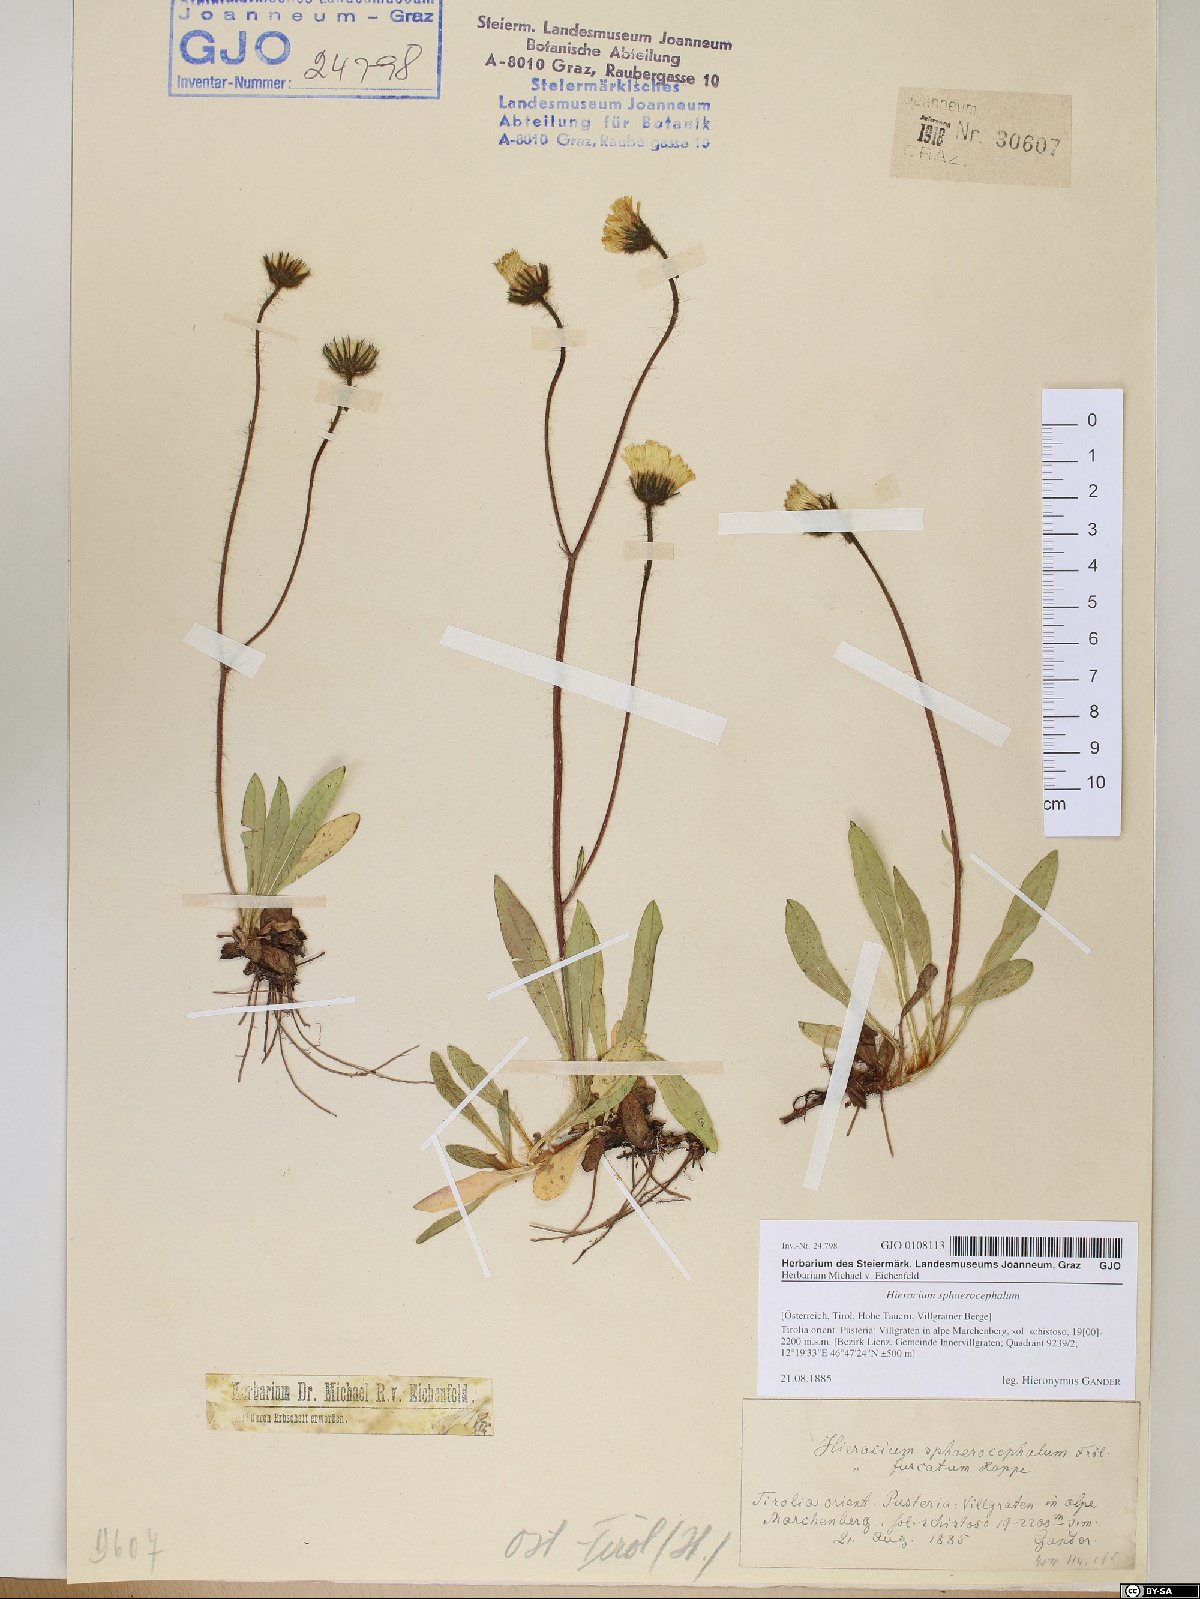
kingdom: Plantae
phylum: Tracheophyta
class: Magnoliopsida
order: Asterales
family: Asteraceae
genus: Pilosella
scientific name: Pilosella sphaerocephala
